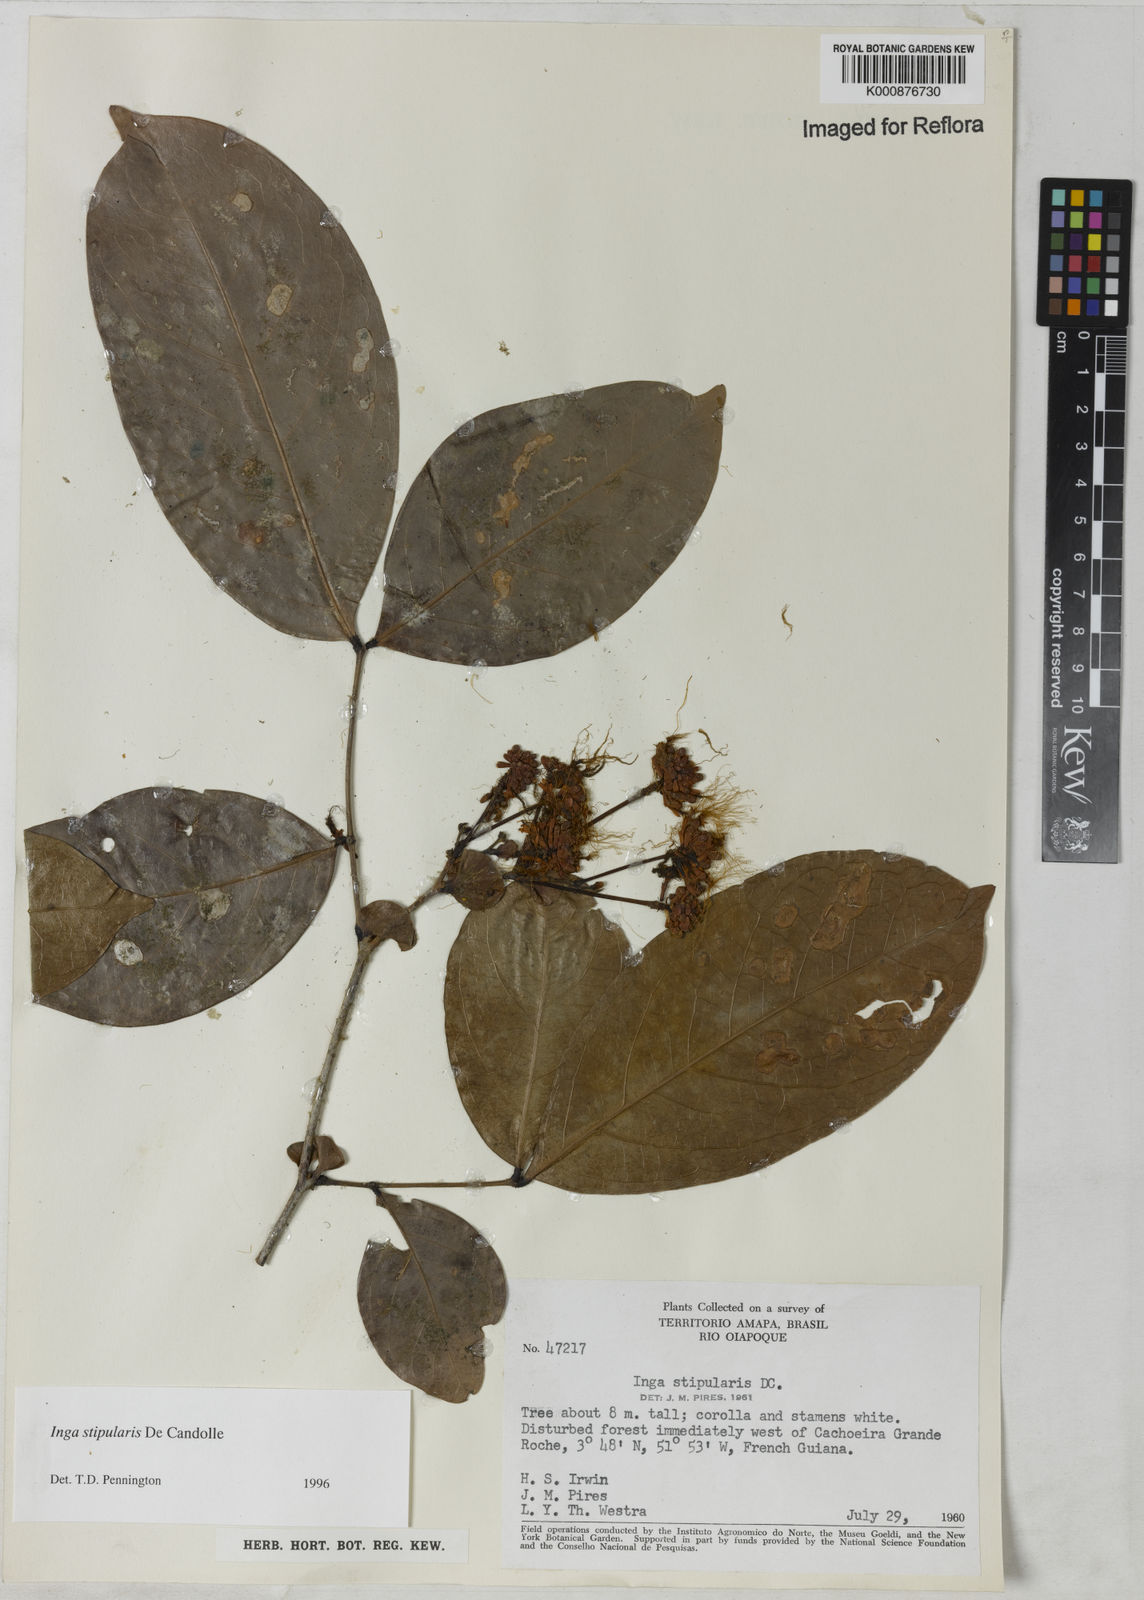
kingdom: Plantae
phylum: Tracheophyta
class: Magnoliopsida
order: Fabales
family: Fabaceae
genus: Inga
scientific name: Inga stipularis
